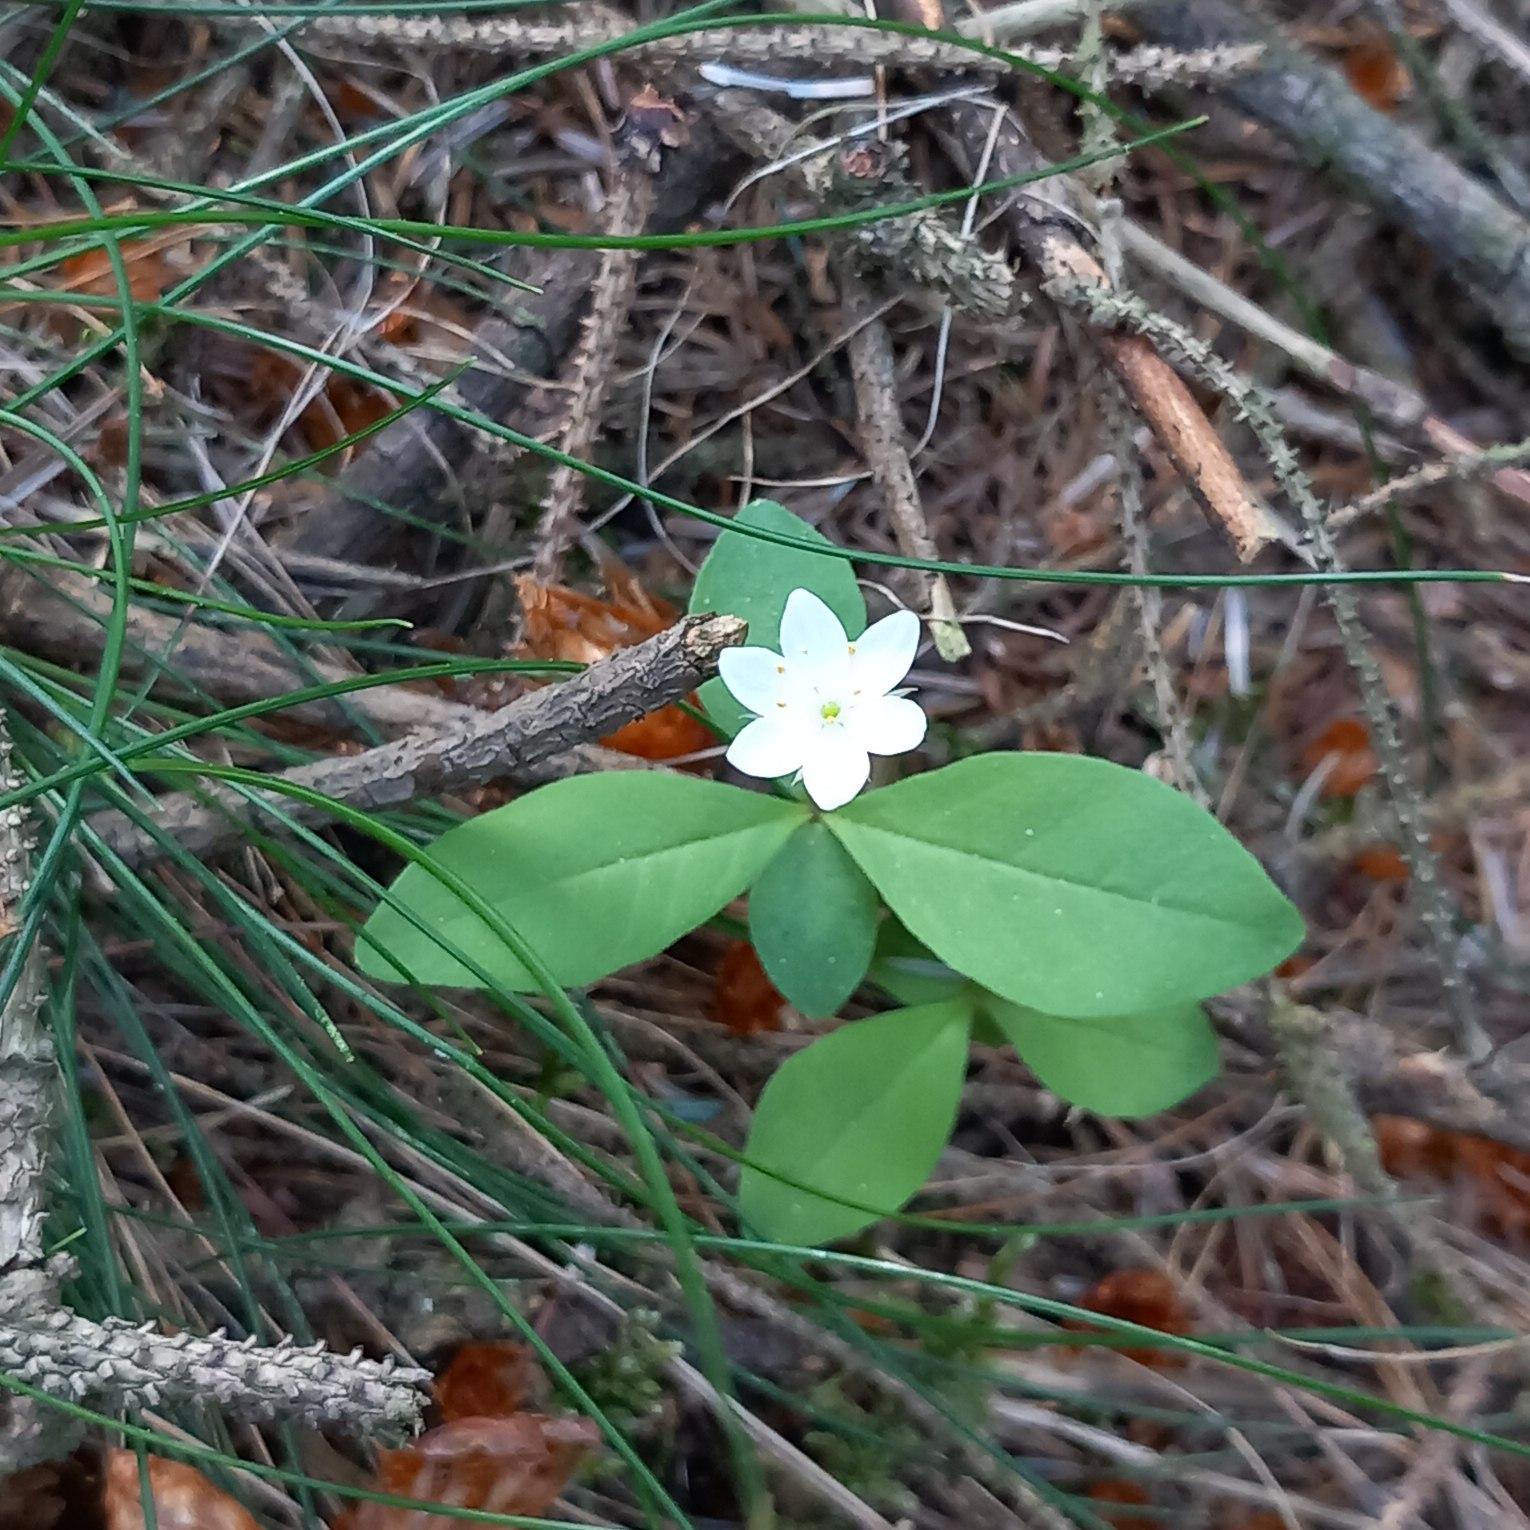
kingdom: Plantae
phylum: Tracheophyta
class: Magnoliopsida
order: Ericales
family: Primulaceae
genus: Lysimachia
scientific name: Lysimachia europaea
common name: Skovstjerne
